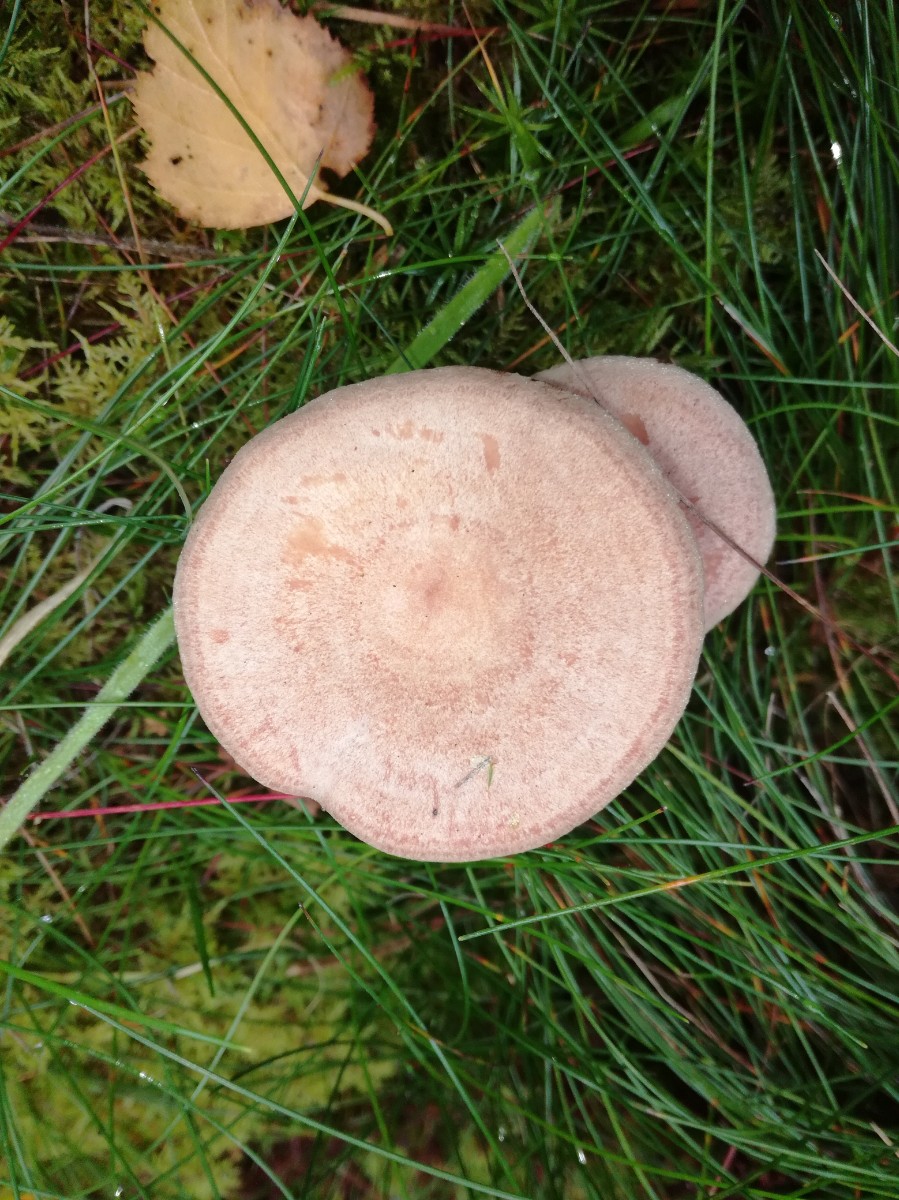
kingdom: Fungi
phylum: Basidiomycota
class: Agaricomycetes
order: Russulales
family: Russulaceae
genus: Lactarius
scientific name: Lactarius glyciosmus
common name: kokos-mælkehat
